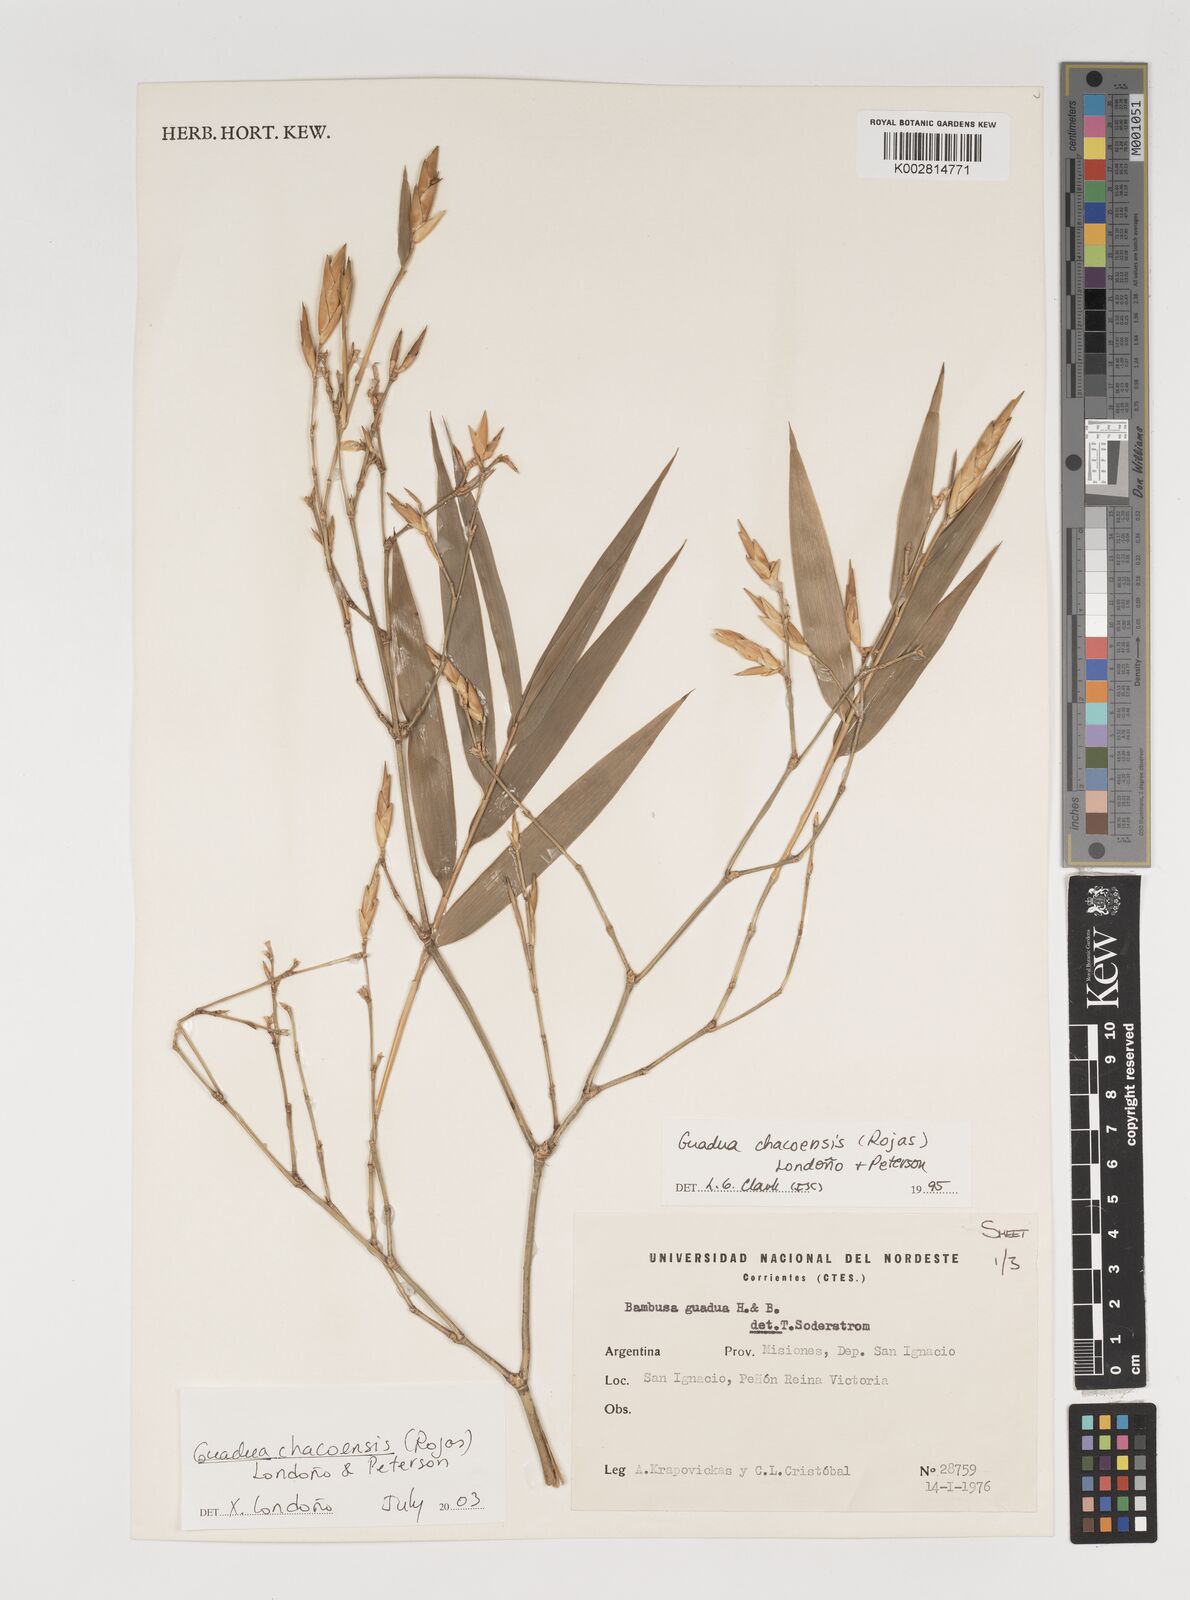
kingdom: Plantae
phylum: Tracheophyta
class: Liliopsida
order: Poales
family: Poaceae
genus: Guadua
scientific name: Guadua chacoensis
